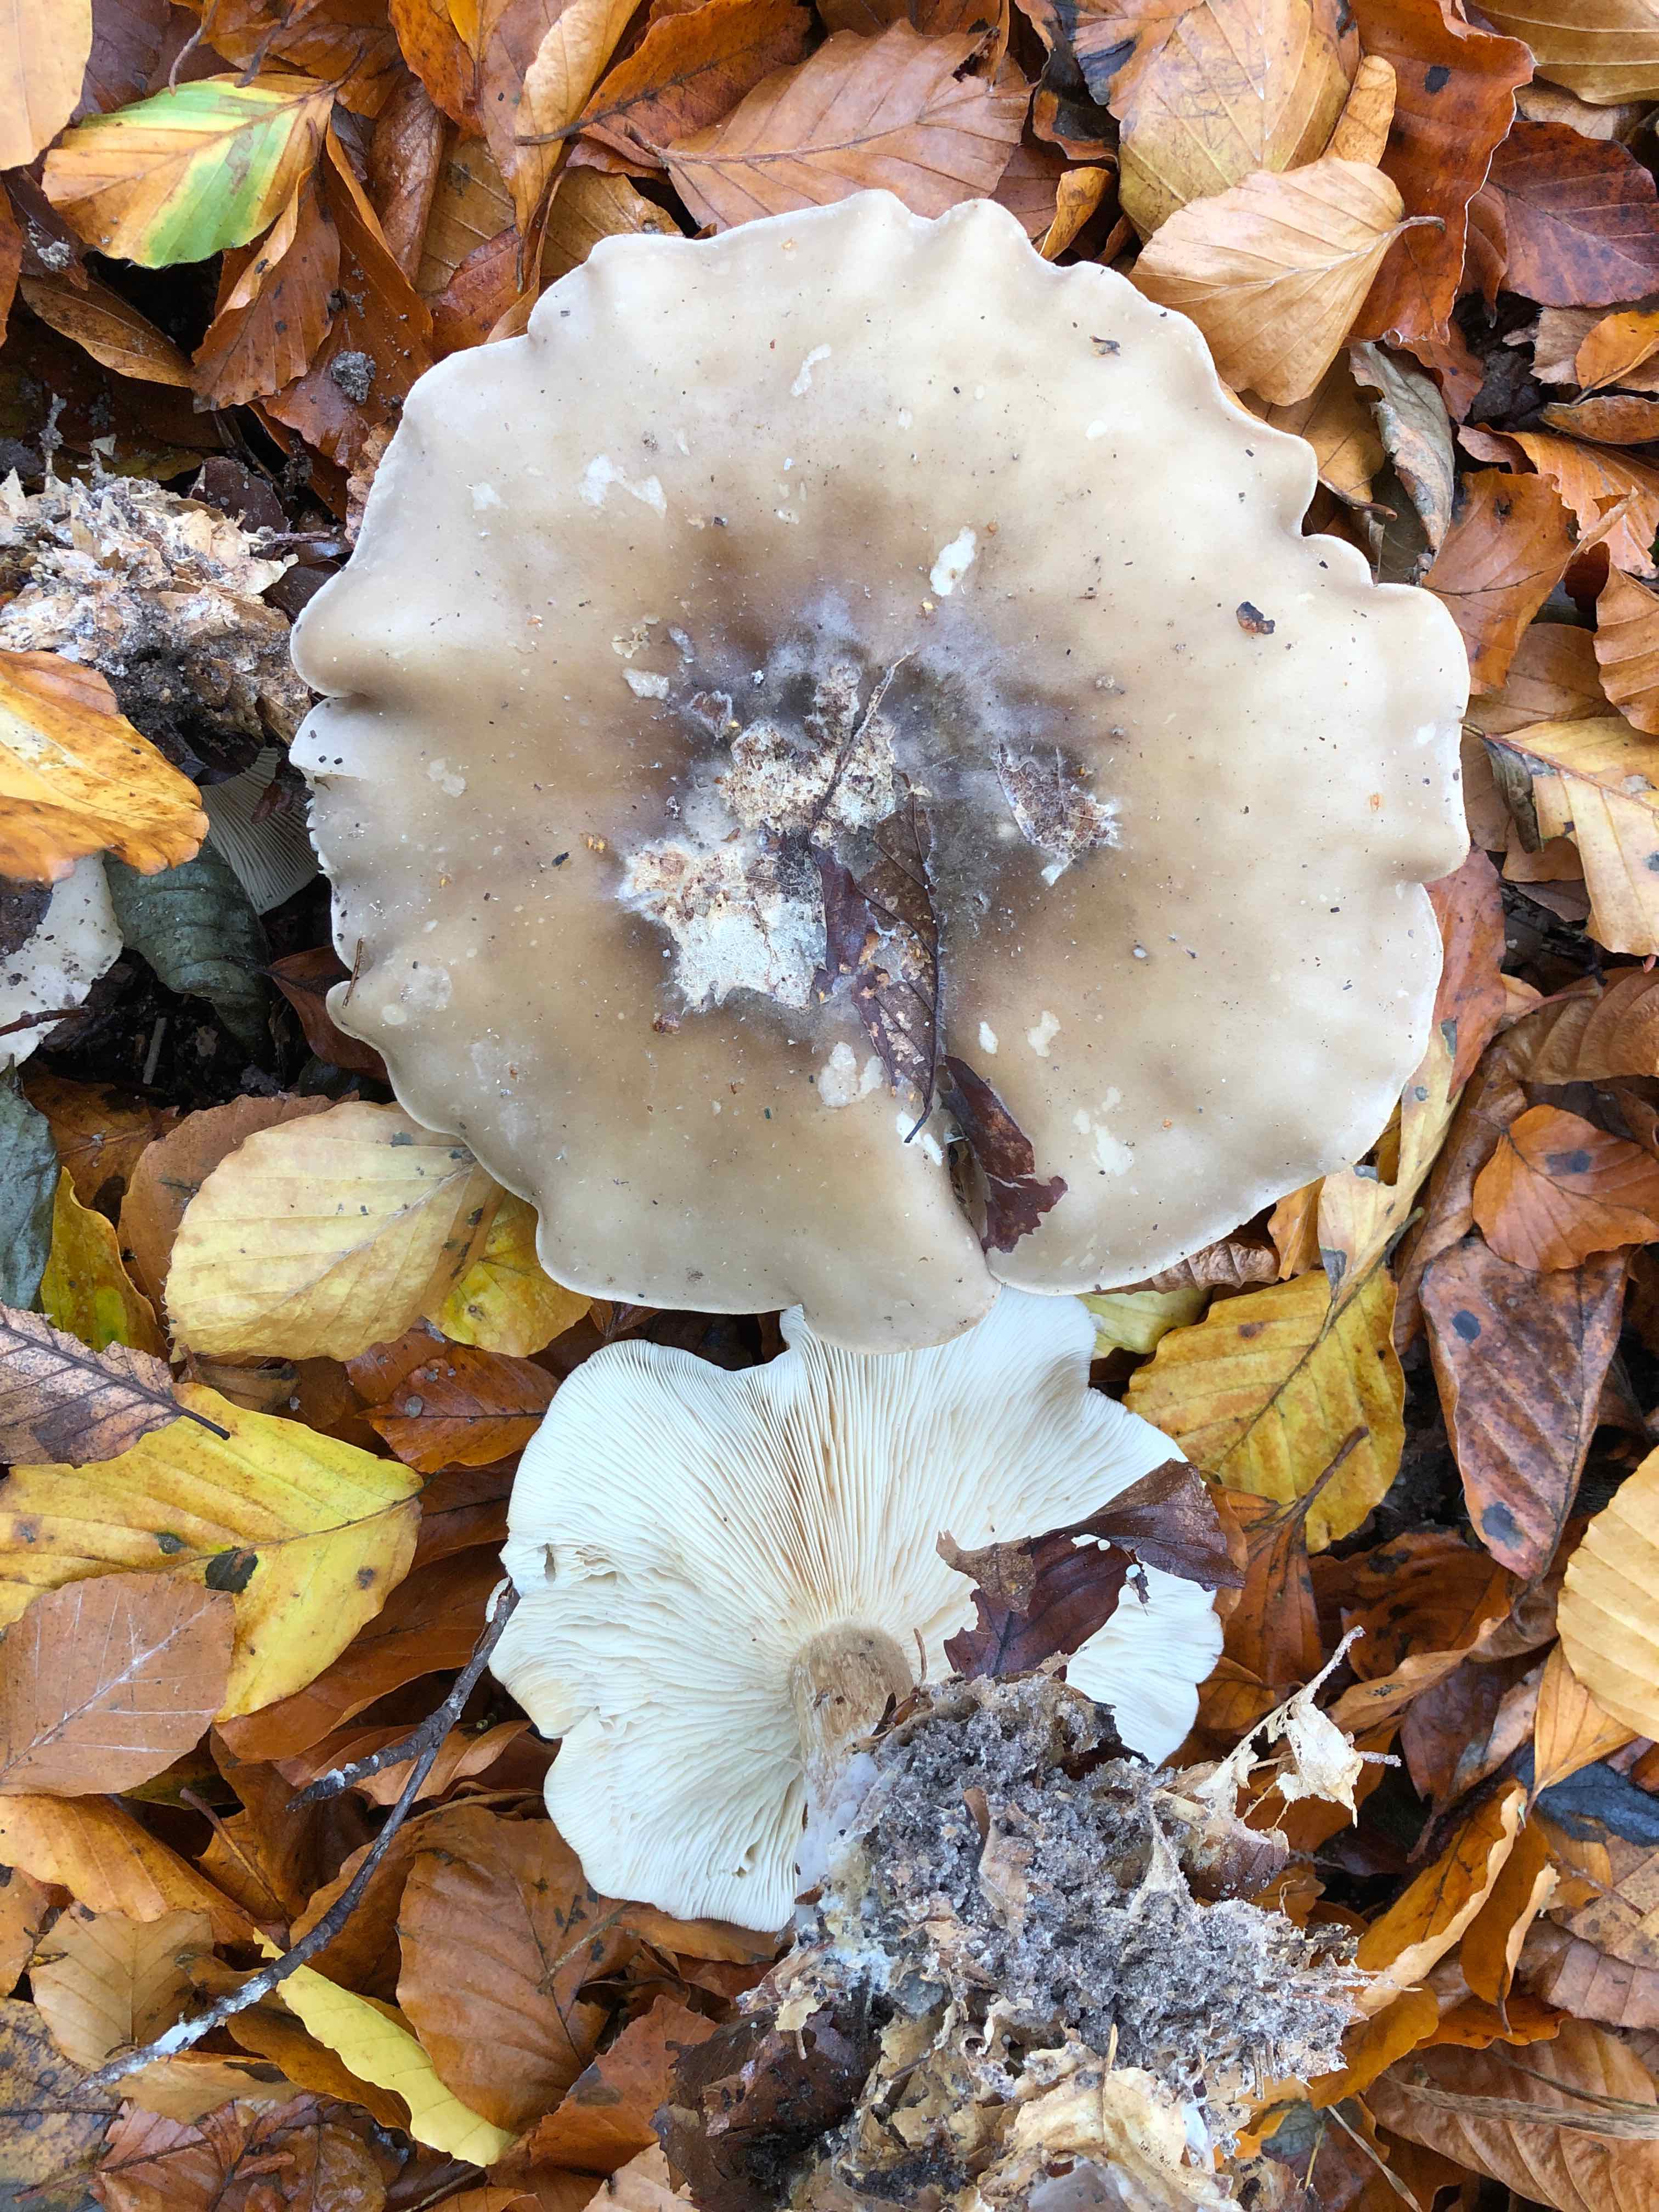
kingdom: Fungi
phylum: Basidiomycota
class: Agaricomycetes
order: Agaricales
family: Tricholomataceae
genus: Clitocybe
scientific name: Clitocybe nebularis
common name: tåge-tragthat
